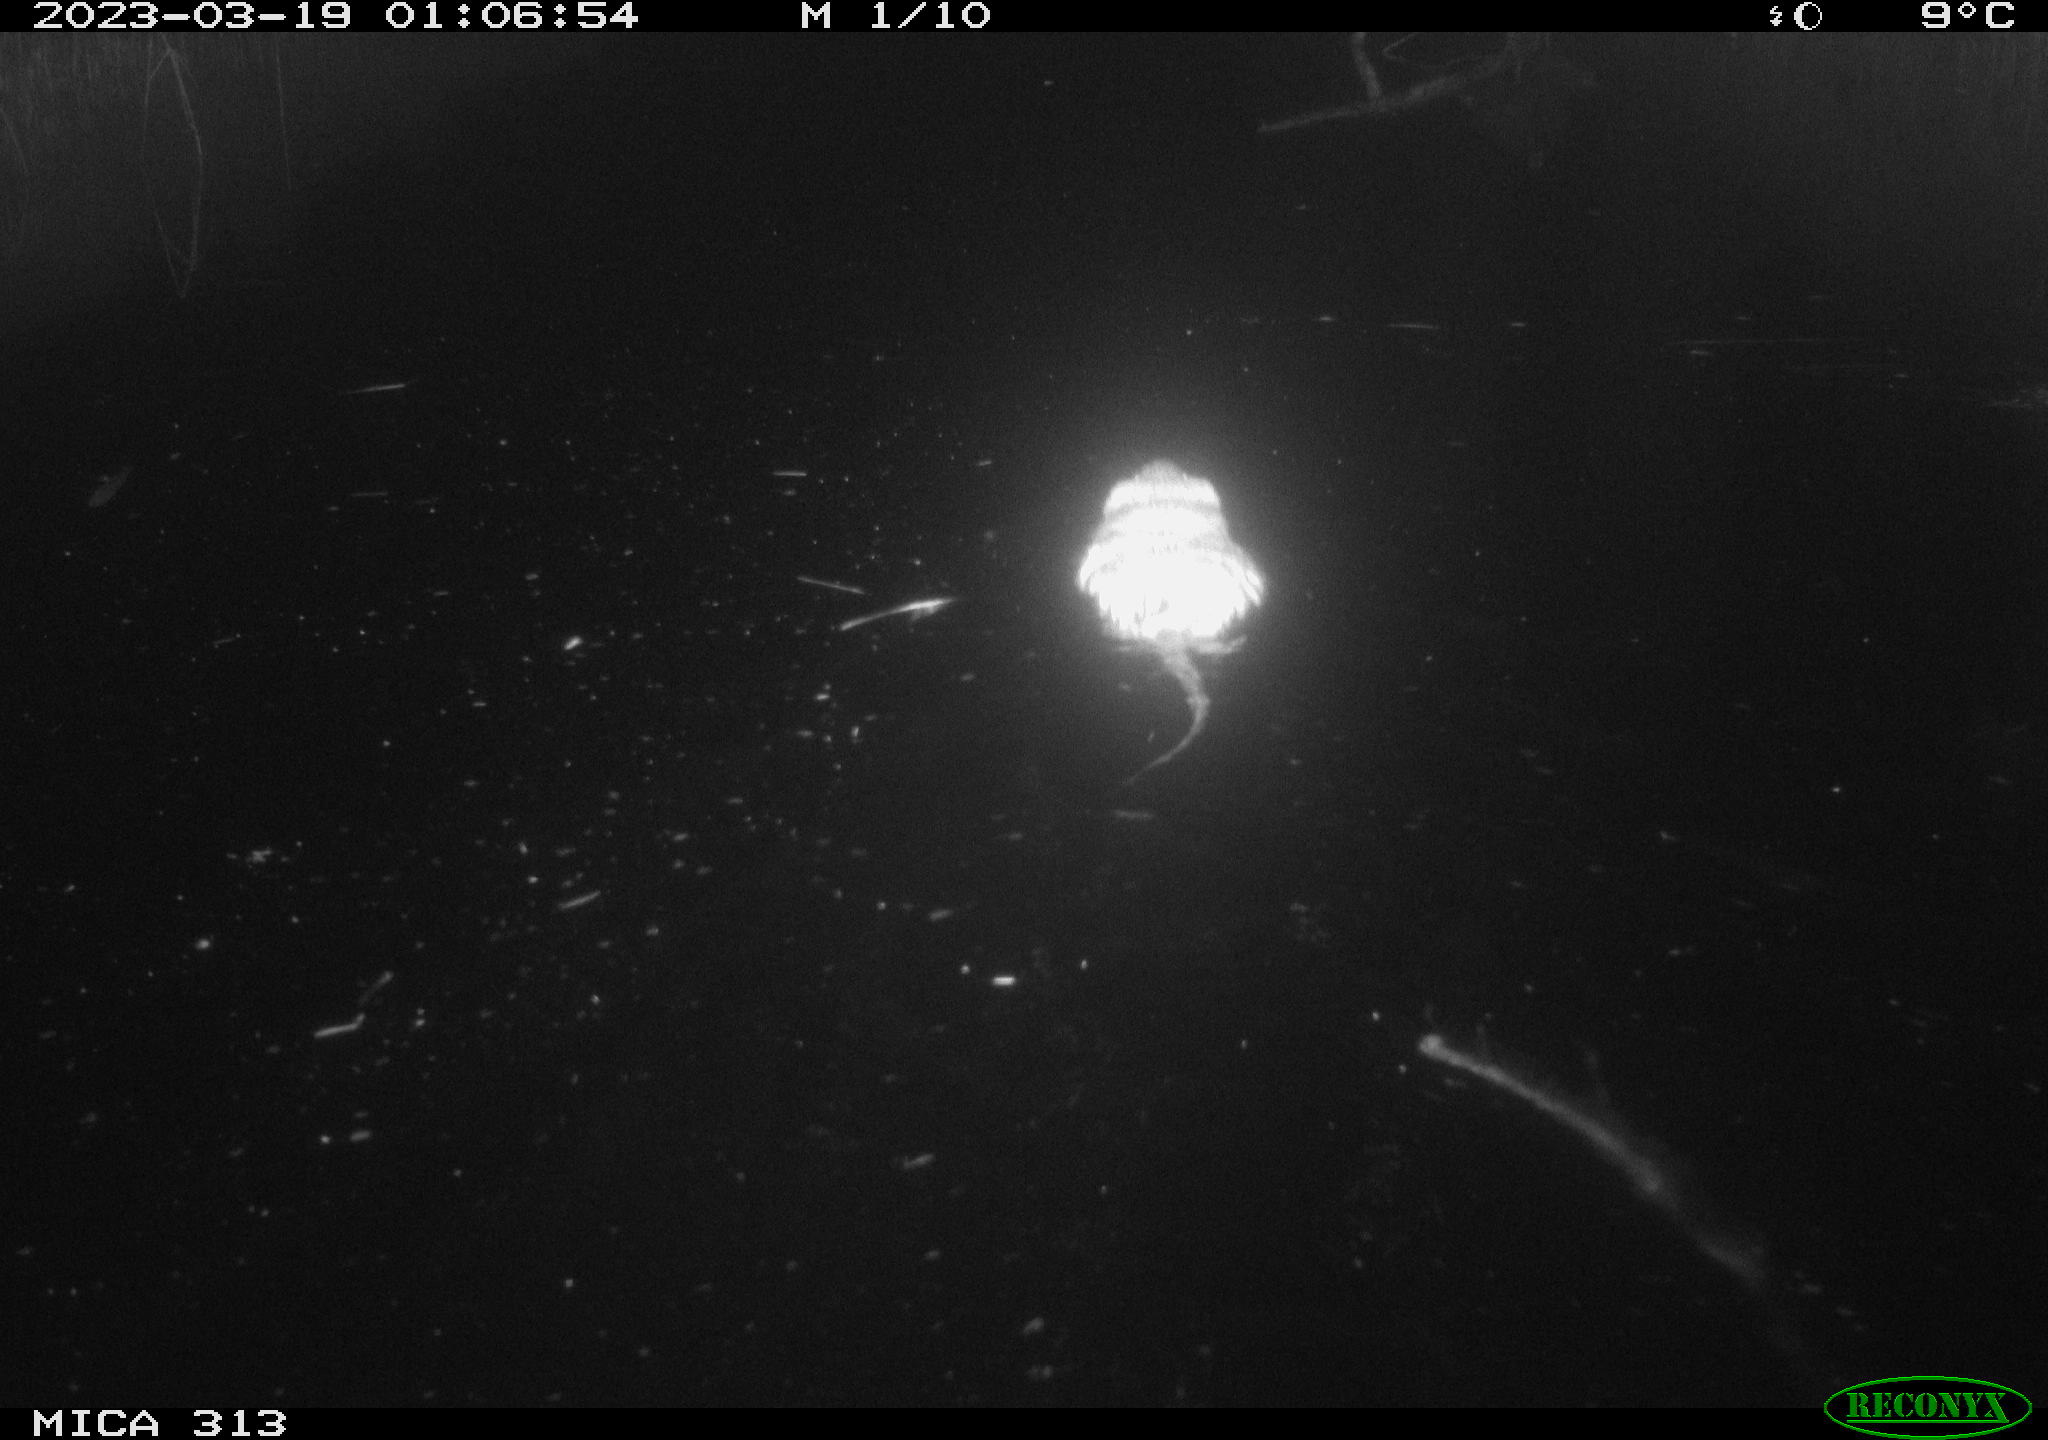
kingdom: Animalia
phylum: Chordata
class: Mammalia
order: Rodentia
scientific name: Rodentia
